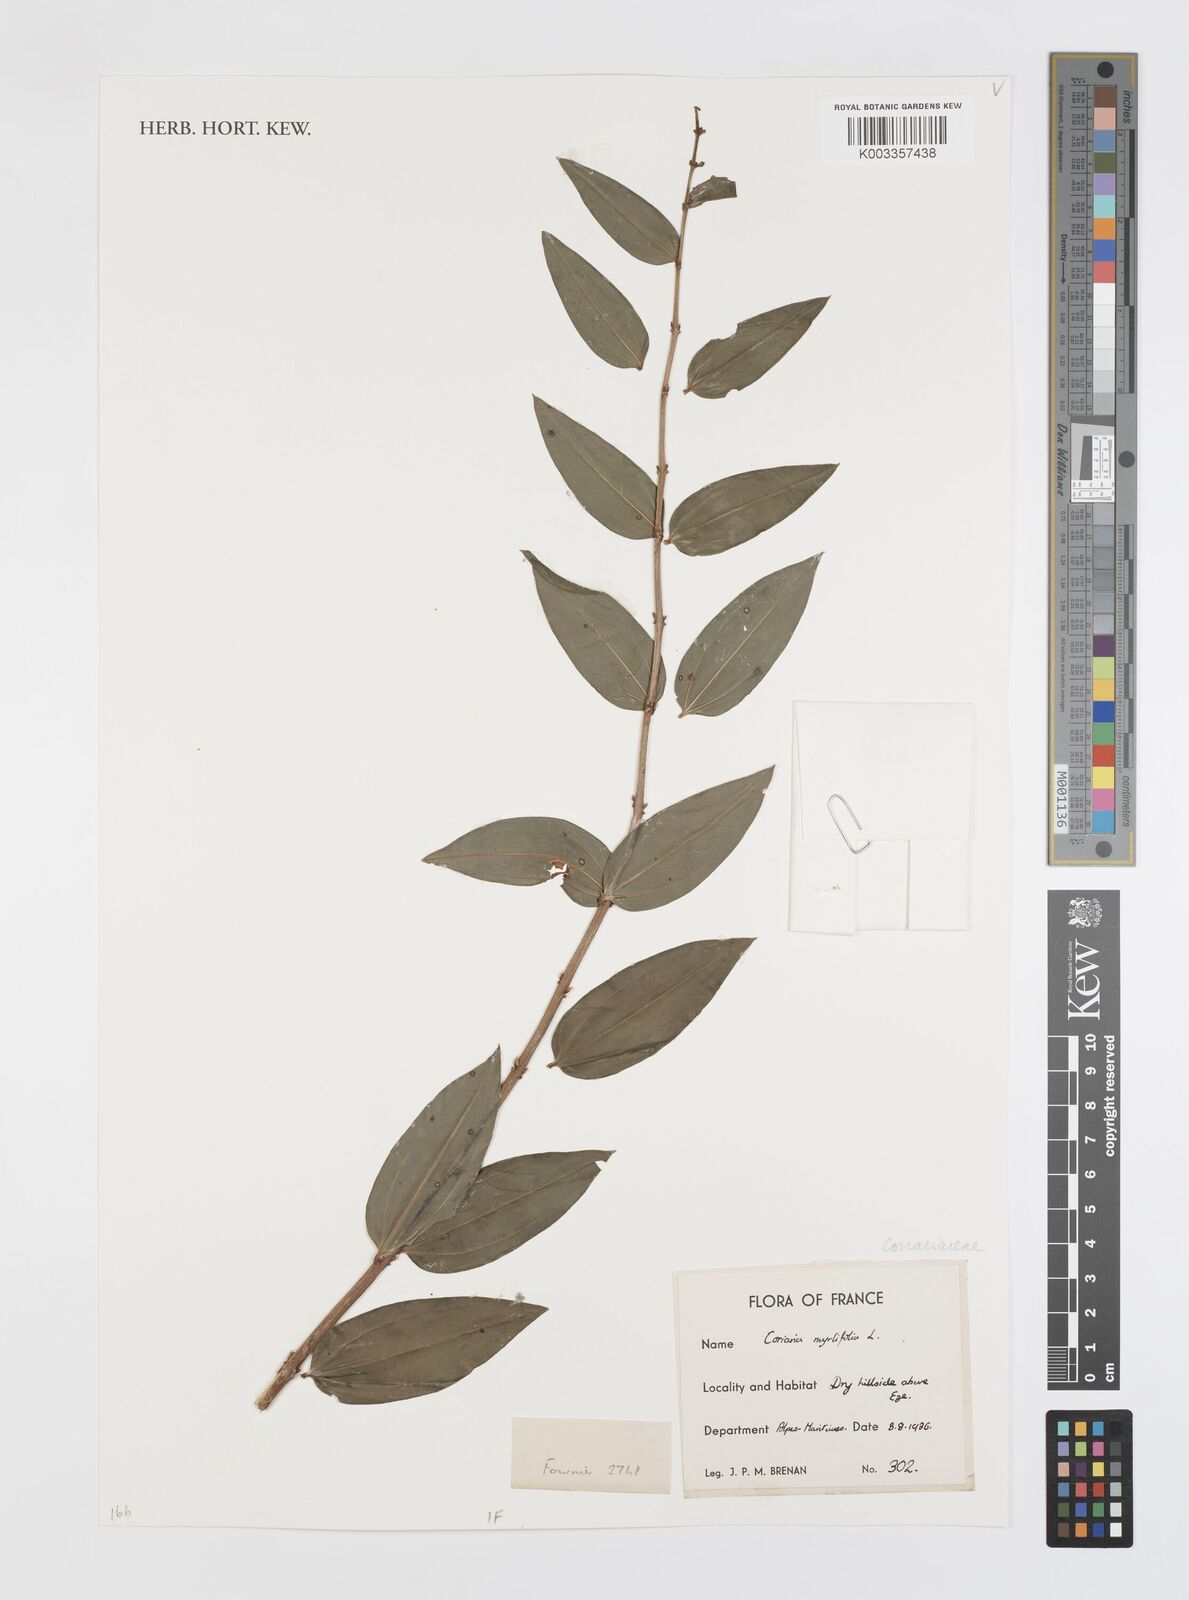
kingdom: Plantae
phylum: Tracheophyta
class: Magnoliopsida
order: Cucurbitales
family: Coriariaceae
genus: Coriaria
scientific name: Coriaria myrtifolia
